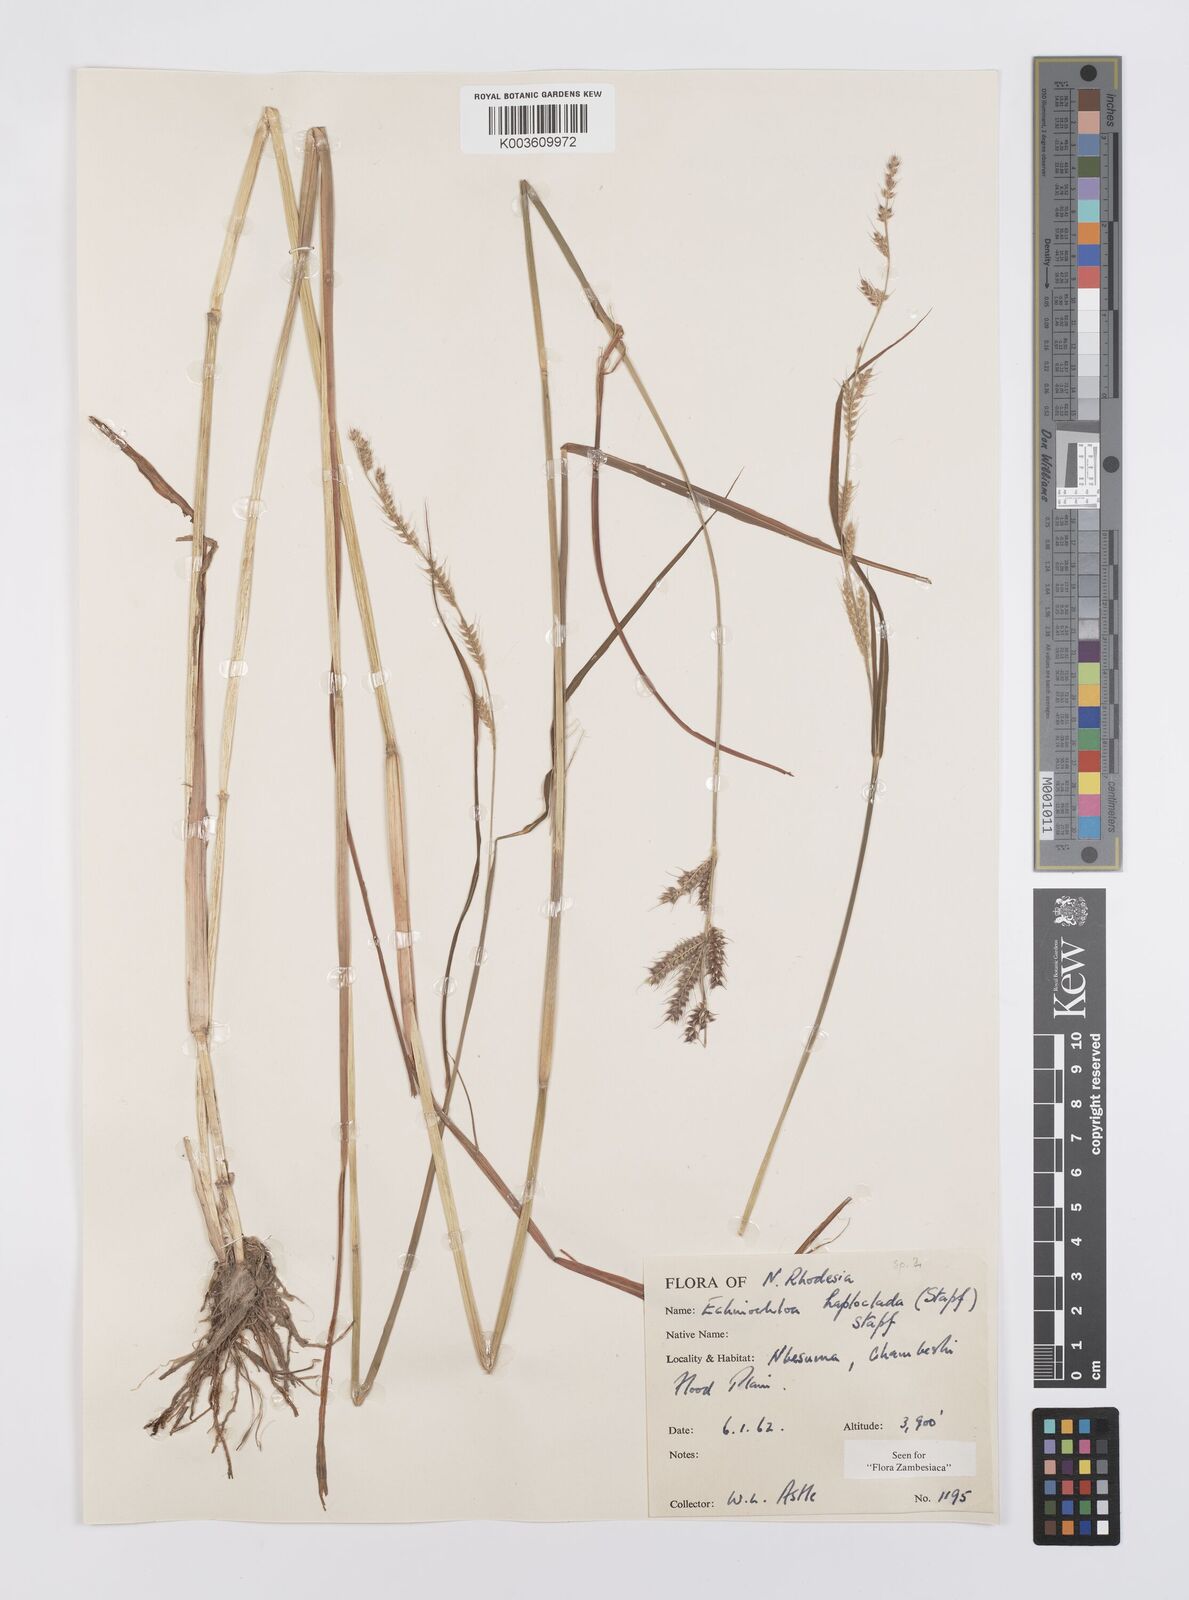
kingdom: Plantae
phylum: Tracheophyta
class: Liliopsida
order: Poales
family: Poaceae
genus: Echinochloa
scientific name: Echinochloa haploclada
